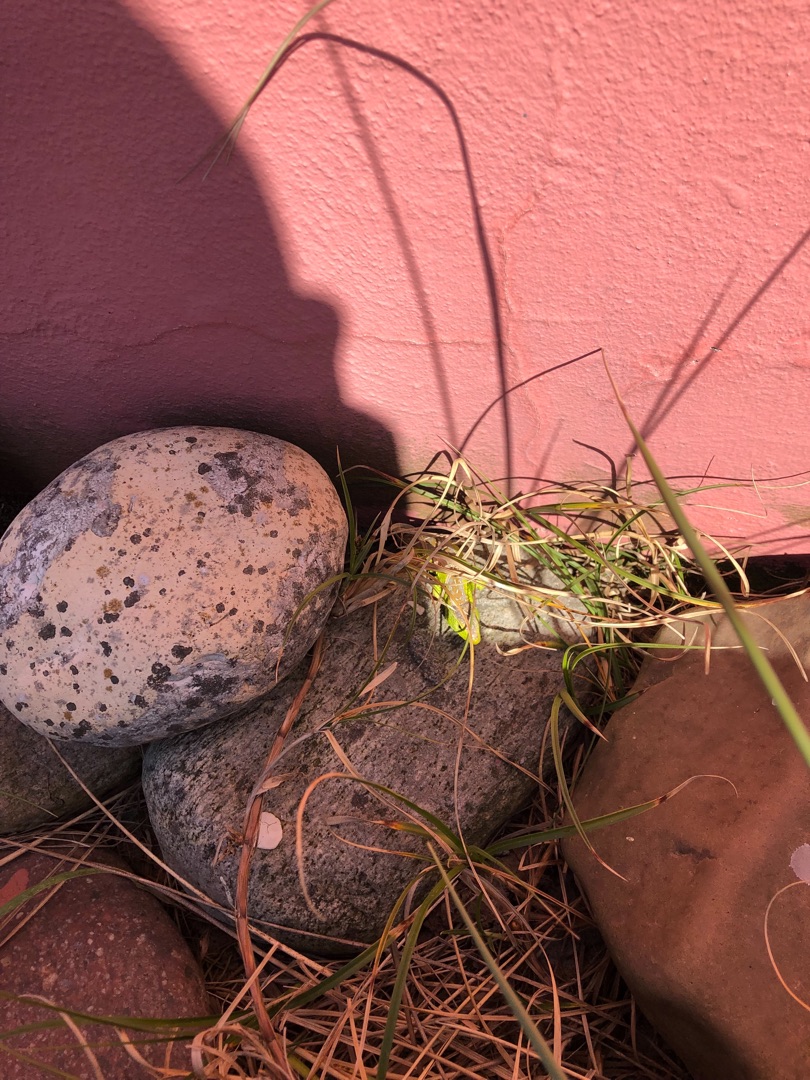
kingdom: Animalia
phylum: Chordata
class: Squamata
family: Lacertidae
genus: Lacerta
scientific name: Lacerta agilis
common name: Markfirben
